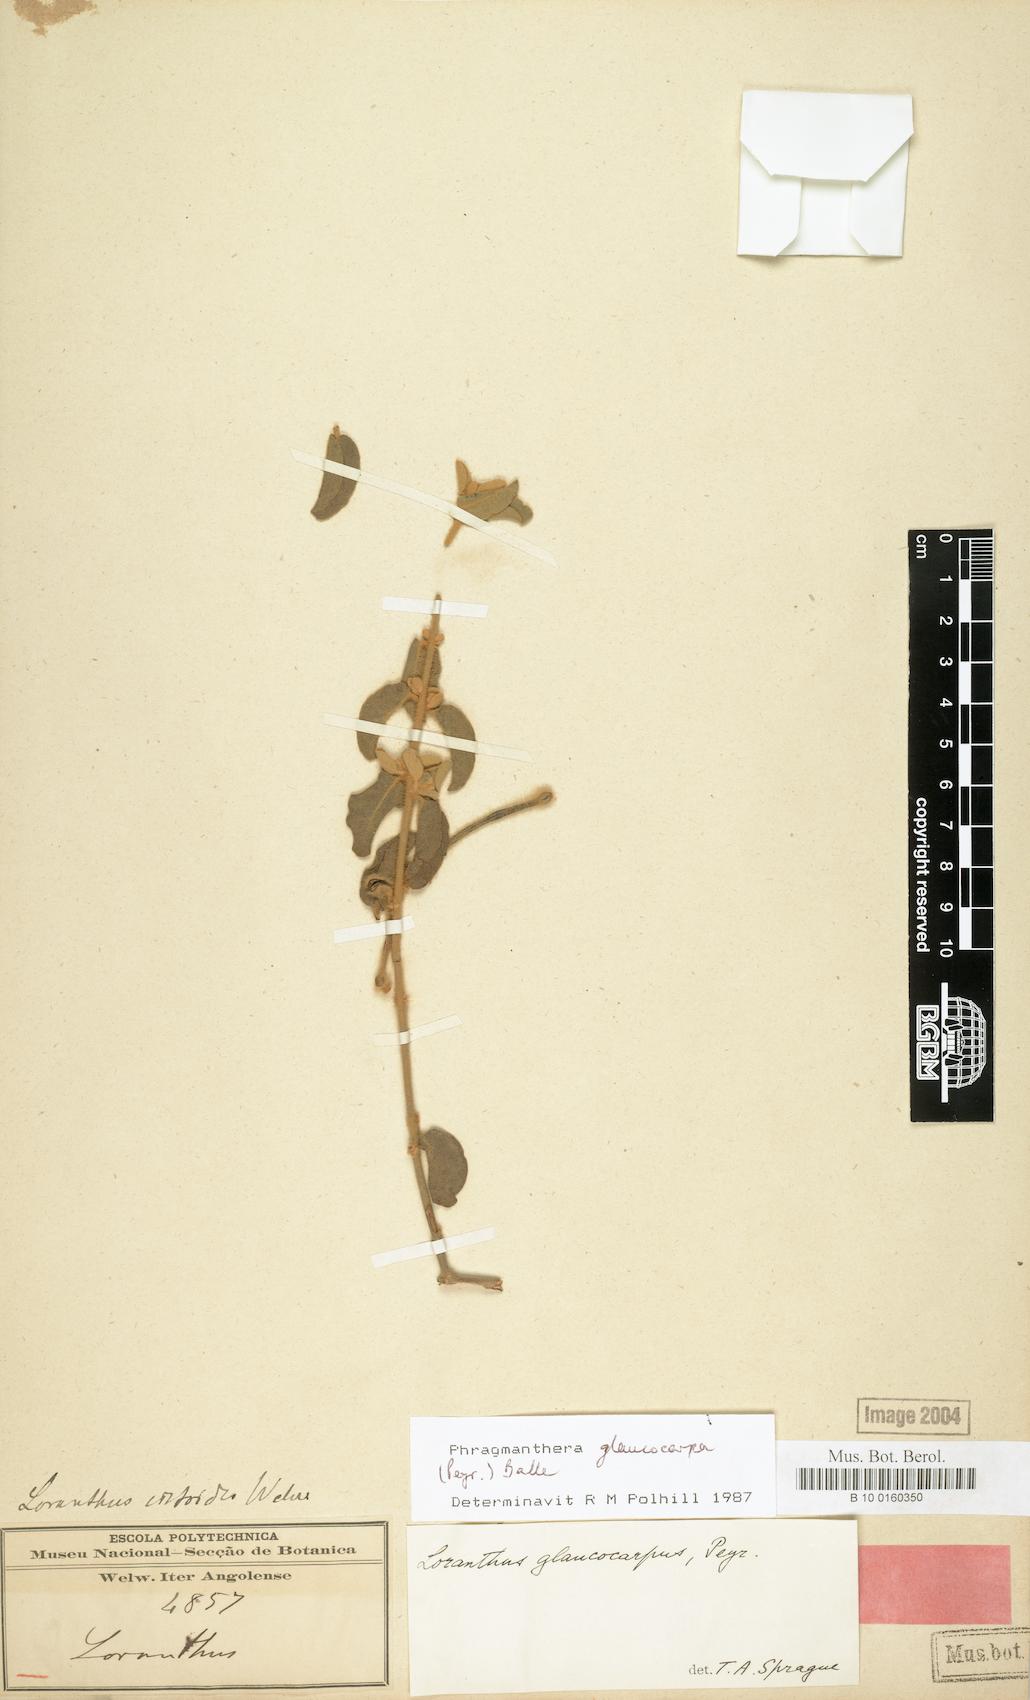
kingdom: Plantae
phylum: Tracheophyta
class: Magnoliopsida
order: Santalales
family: Loranthaceae
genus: Phragmanthera
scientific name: Phragmanthera glaucocarpa
